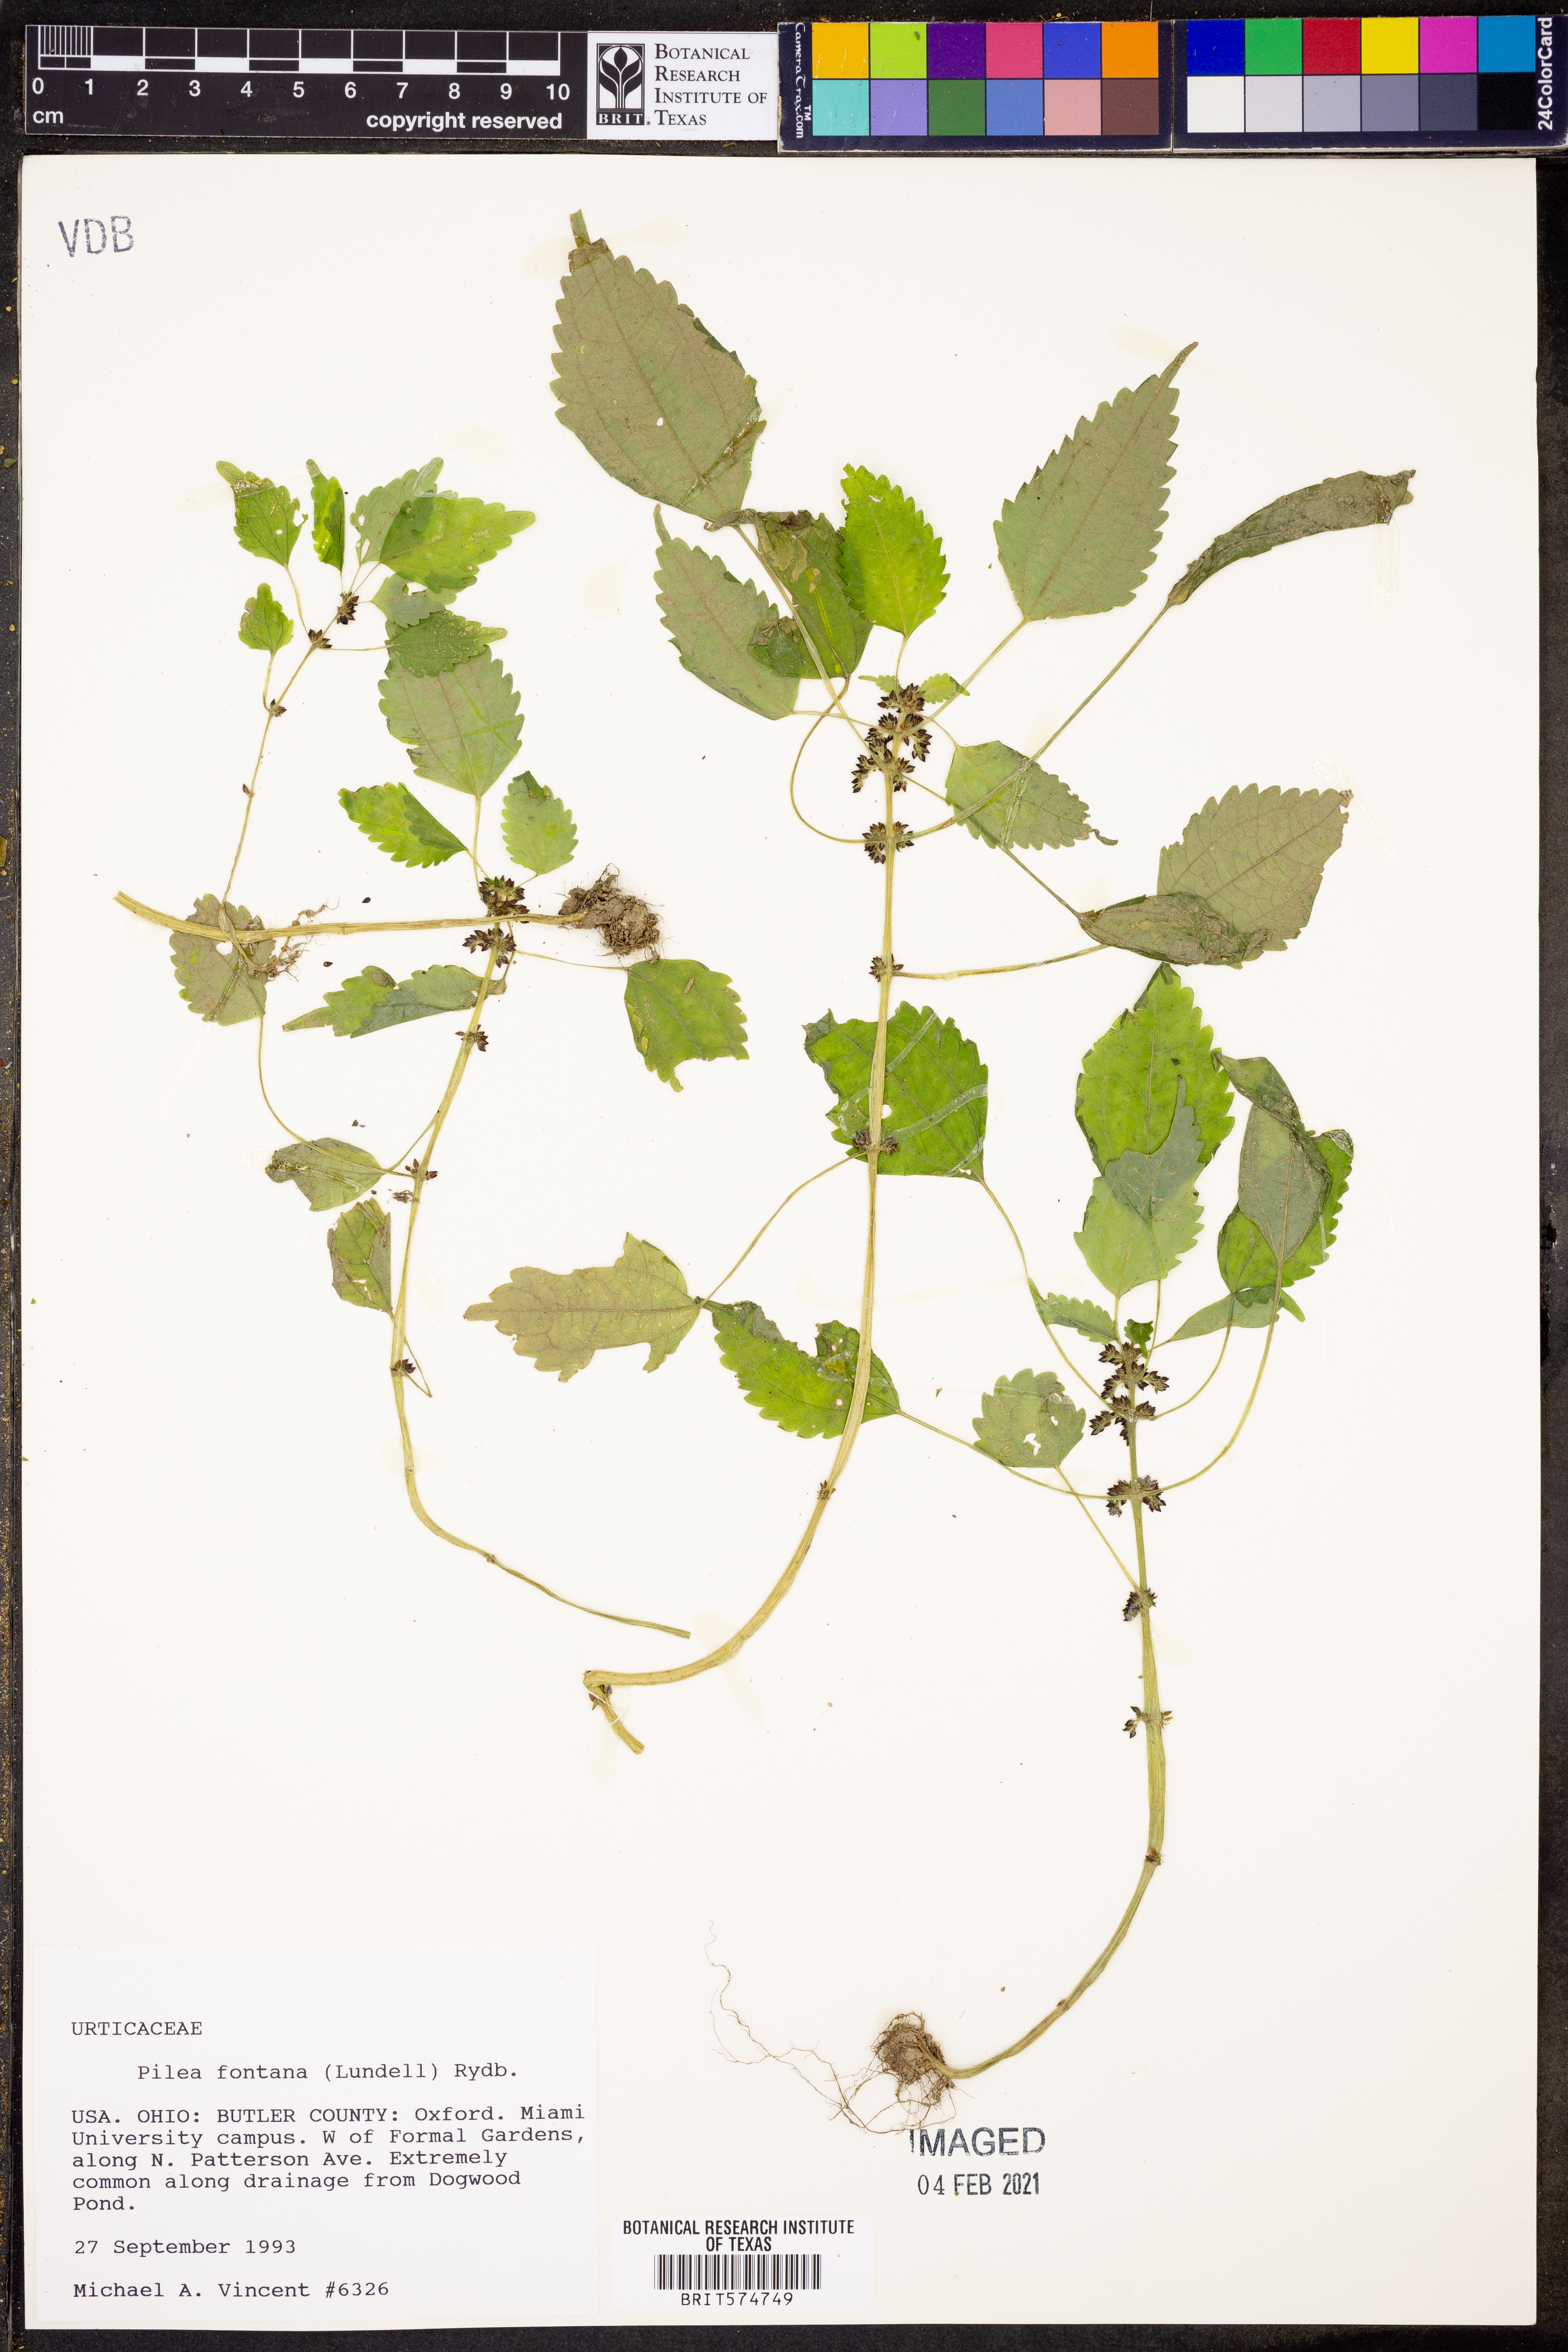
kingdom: Plantae
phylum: Tracheophyta
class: Magnoliopsida
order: Rosales
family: Urticaceae
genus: Pilea
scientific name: Pilea fontana
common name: Clearweed
